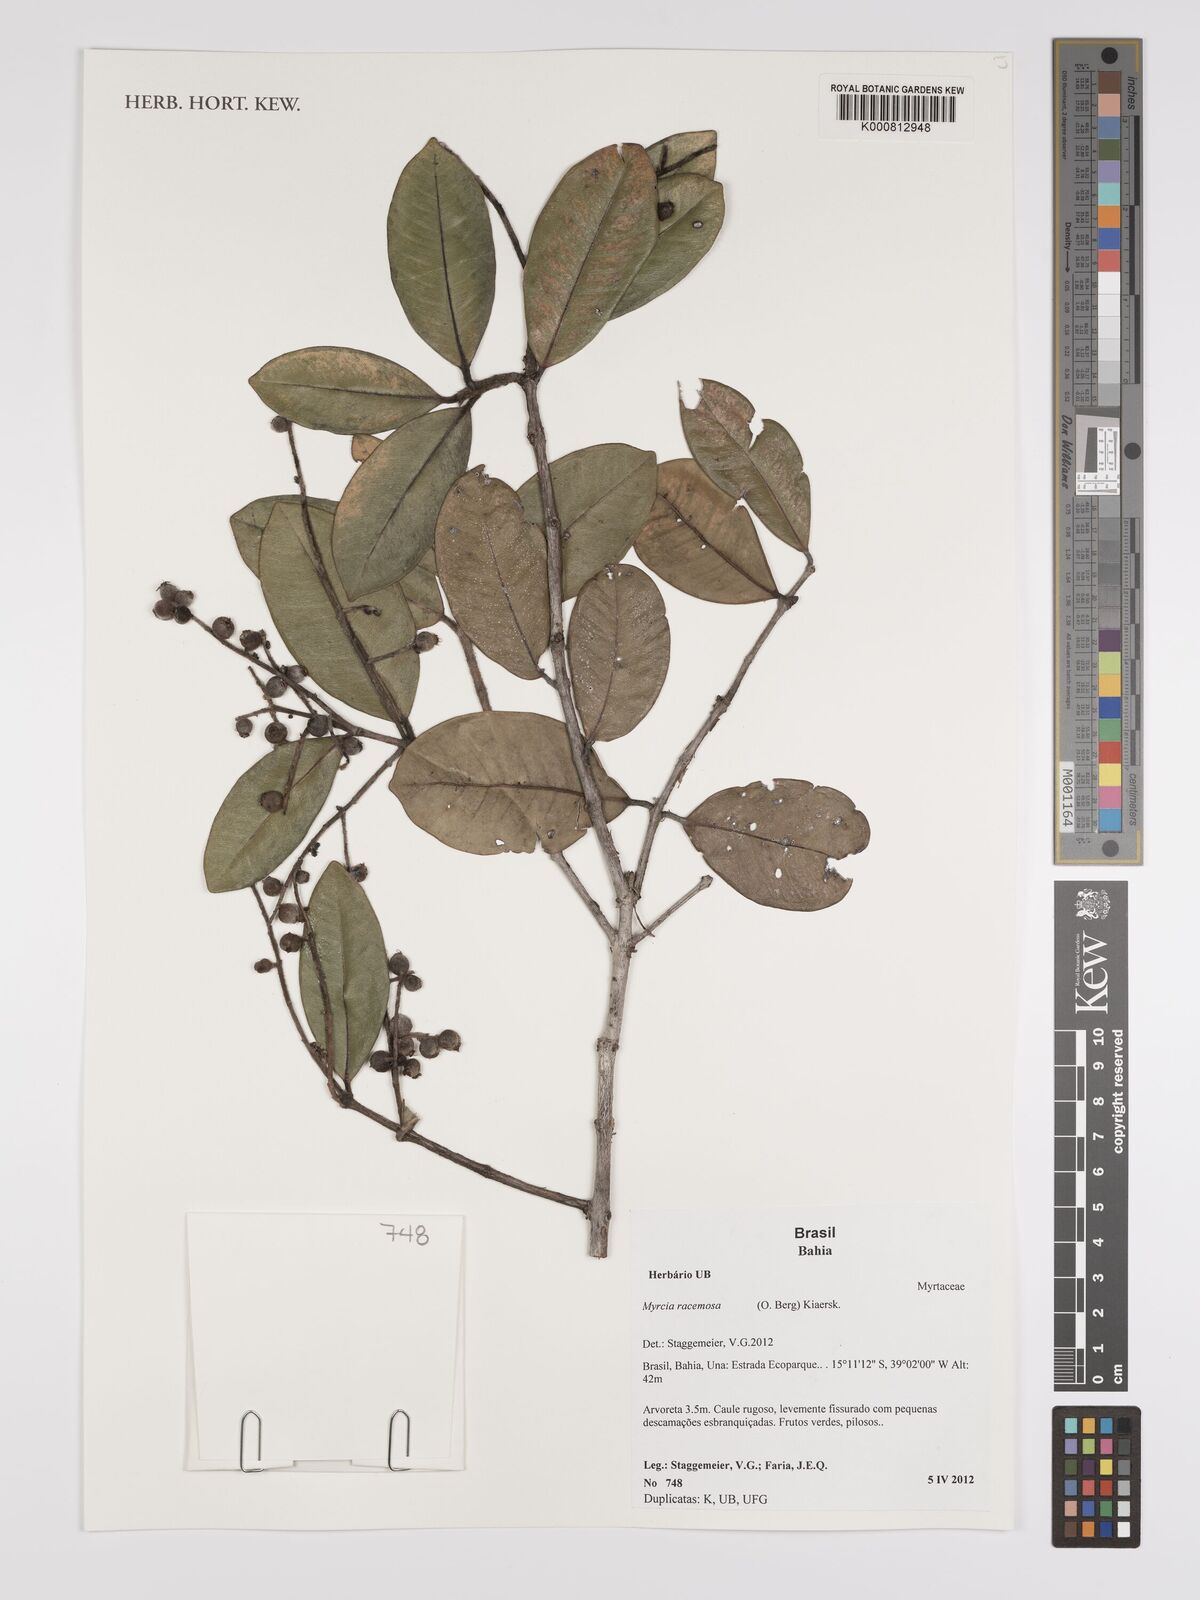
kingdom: Plantae
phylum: Tracheophyta
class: Magnoliopsida
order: Myrtales
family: Myrtaceae
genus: Myrcia
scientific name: Myrcia racemosa
